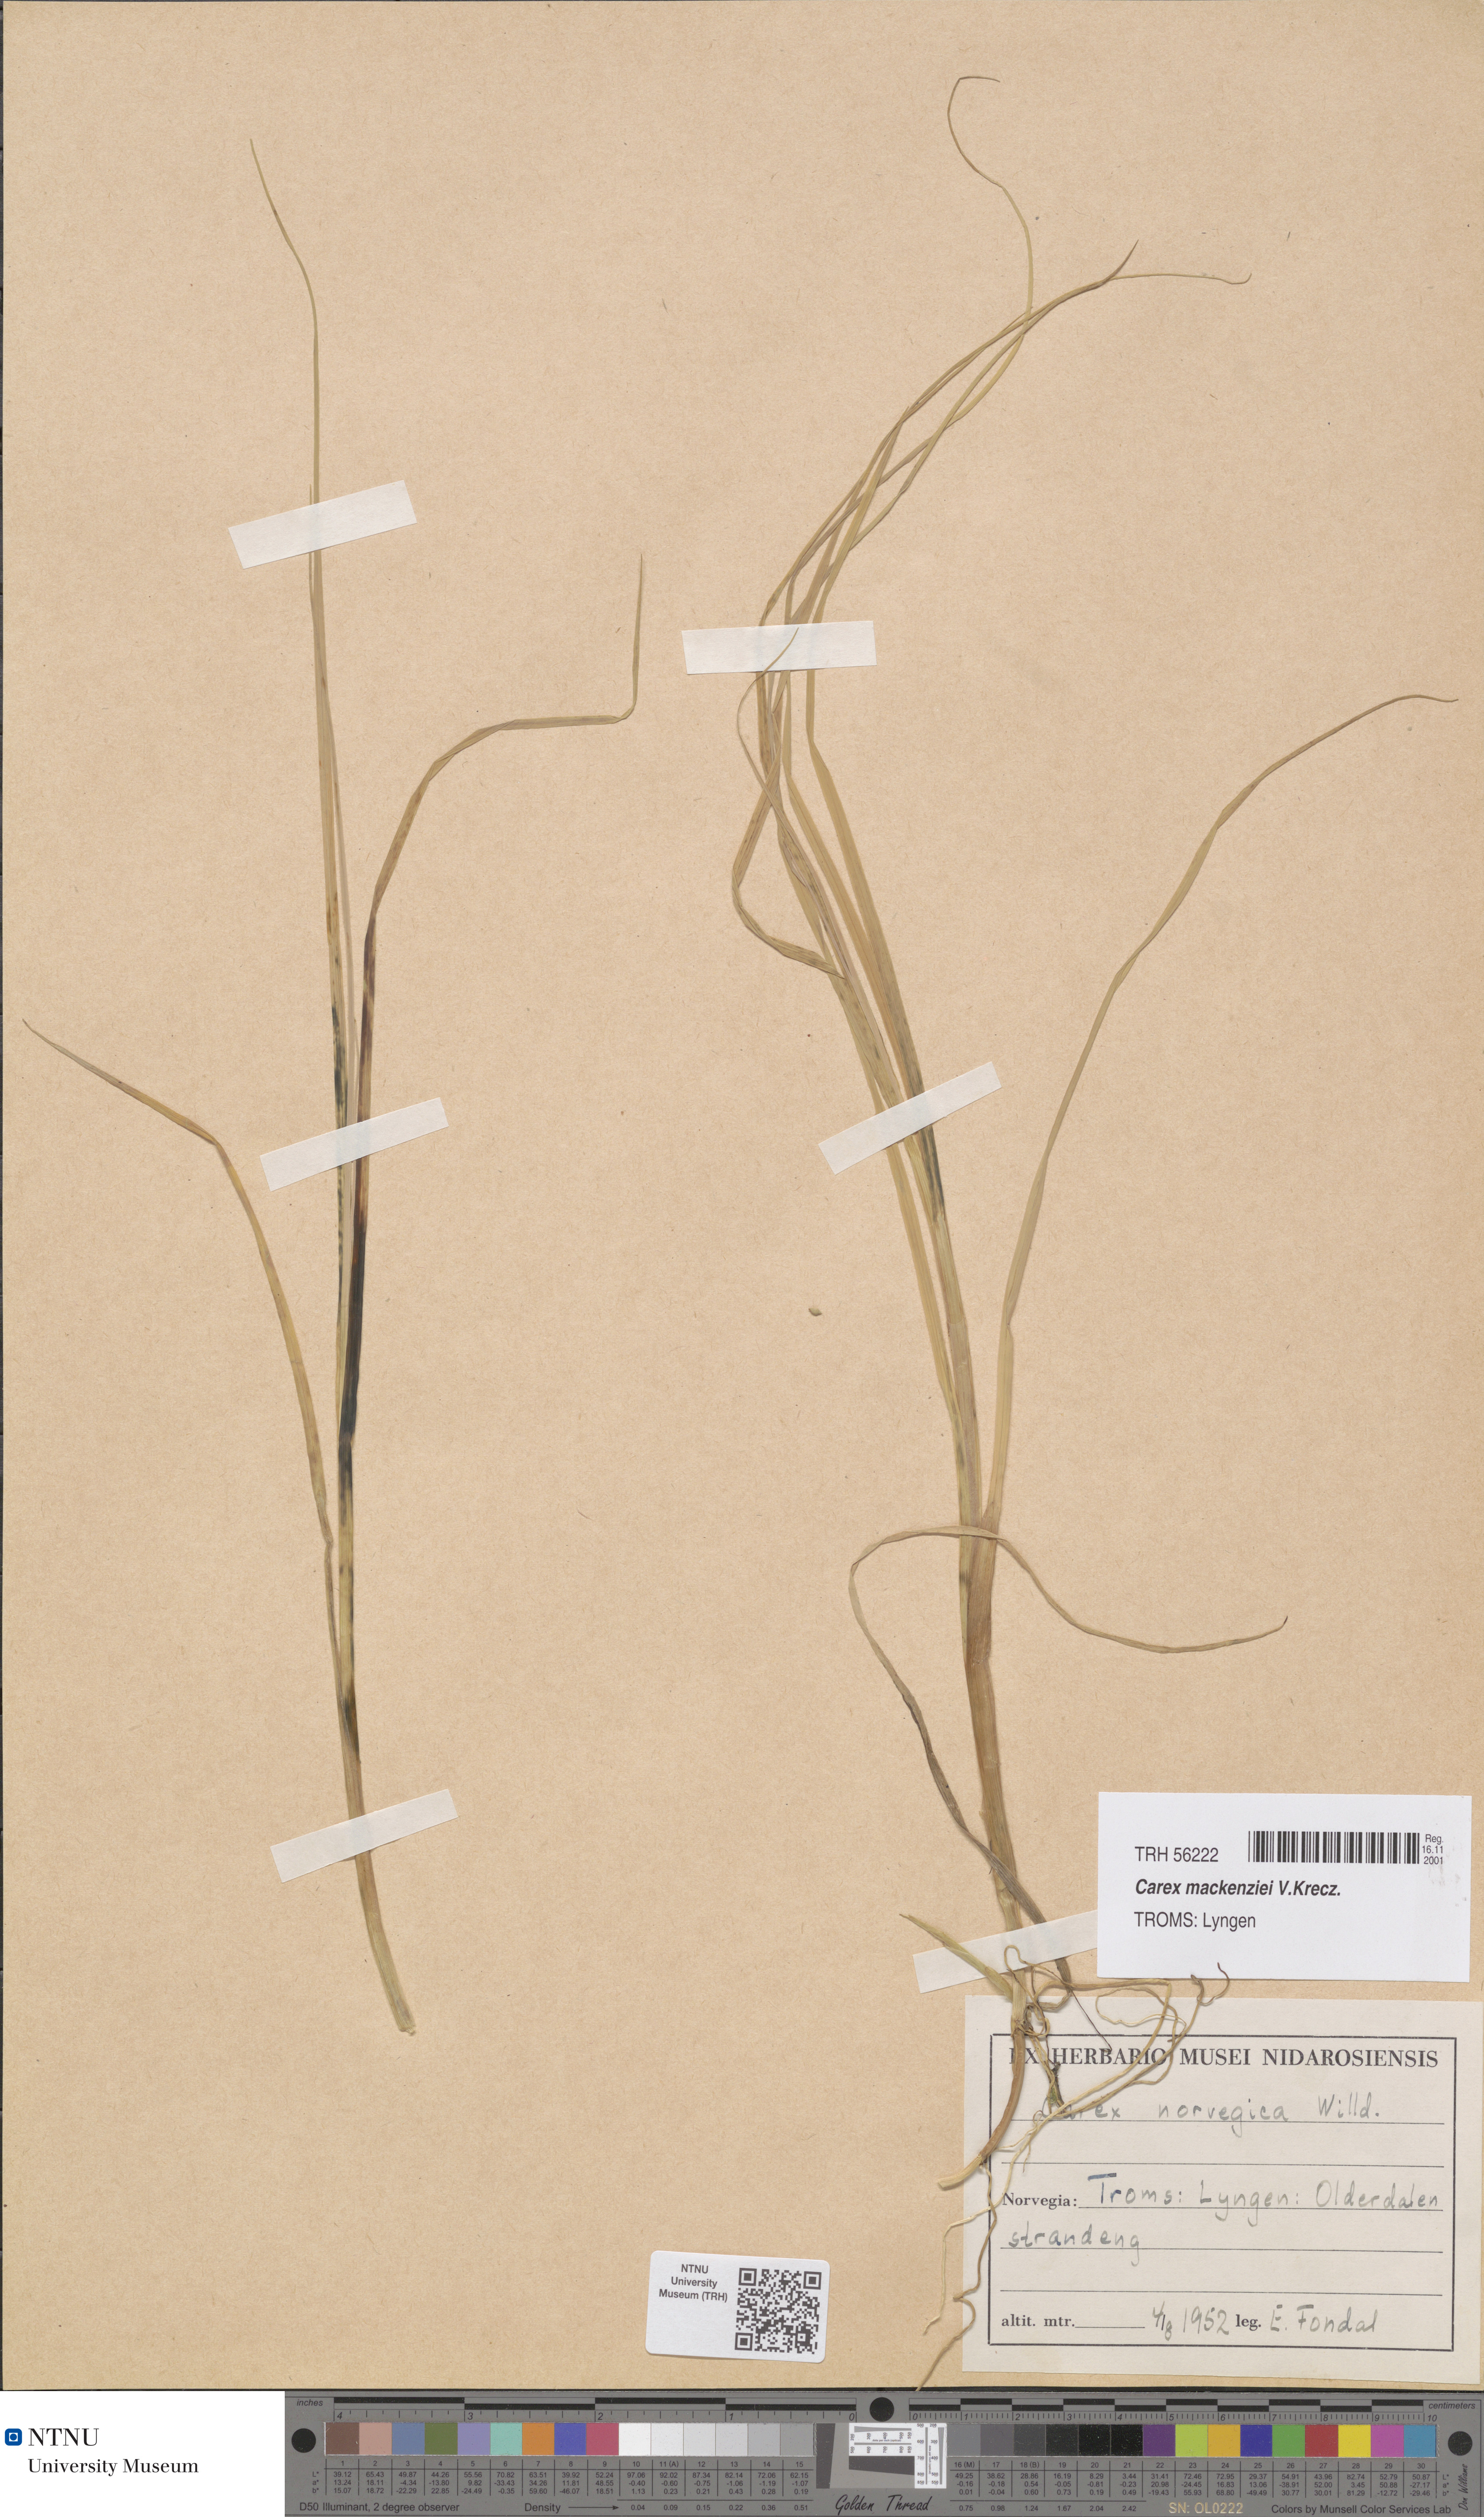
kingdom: Plantae
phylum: Tracheophyta
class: Liliopsida
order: Poales
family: Cyperaceae
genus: Carex
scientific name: Carex mackenziei
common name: Mackenzie's sedge
